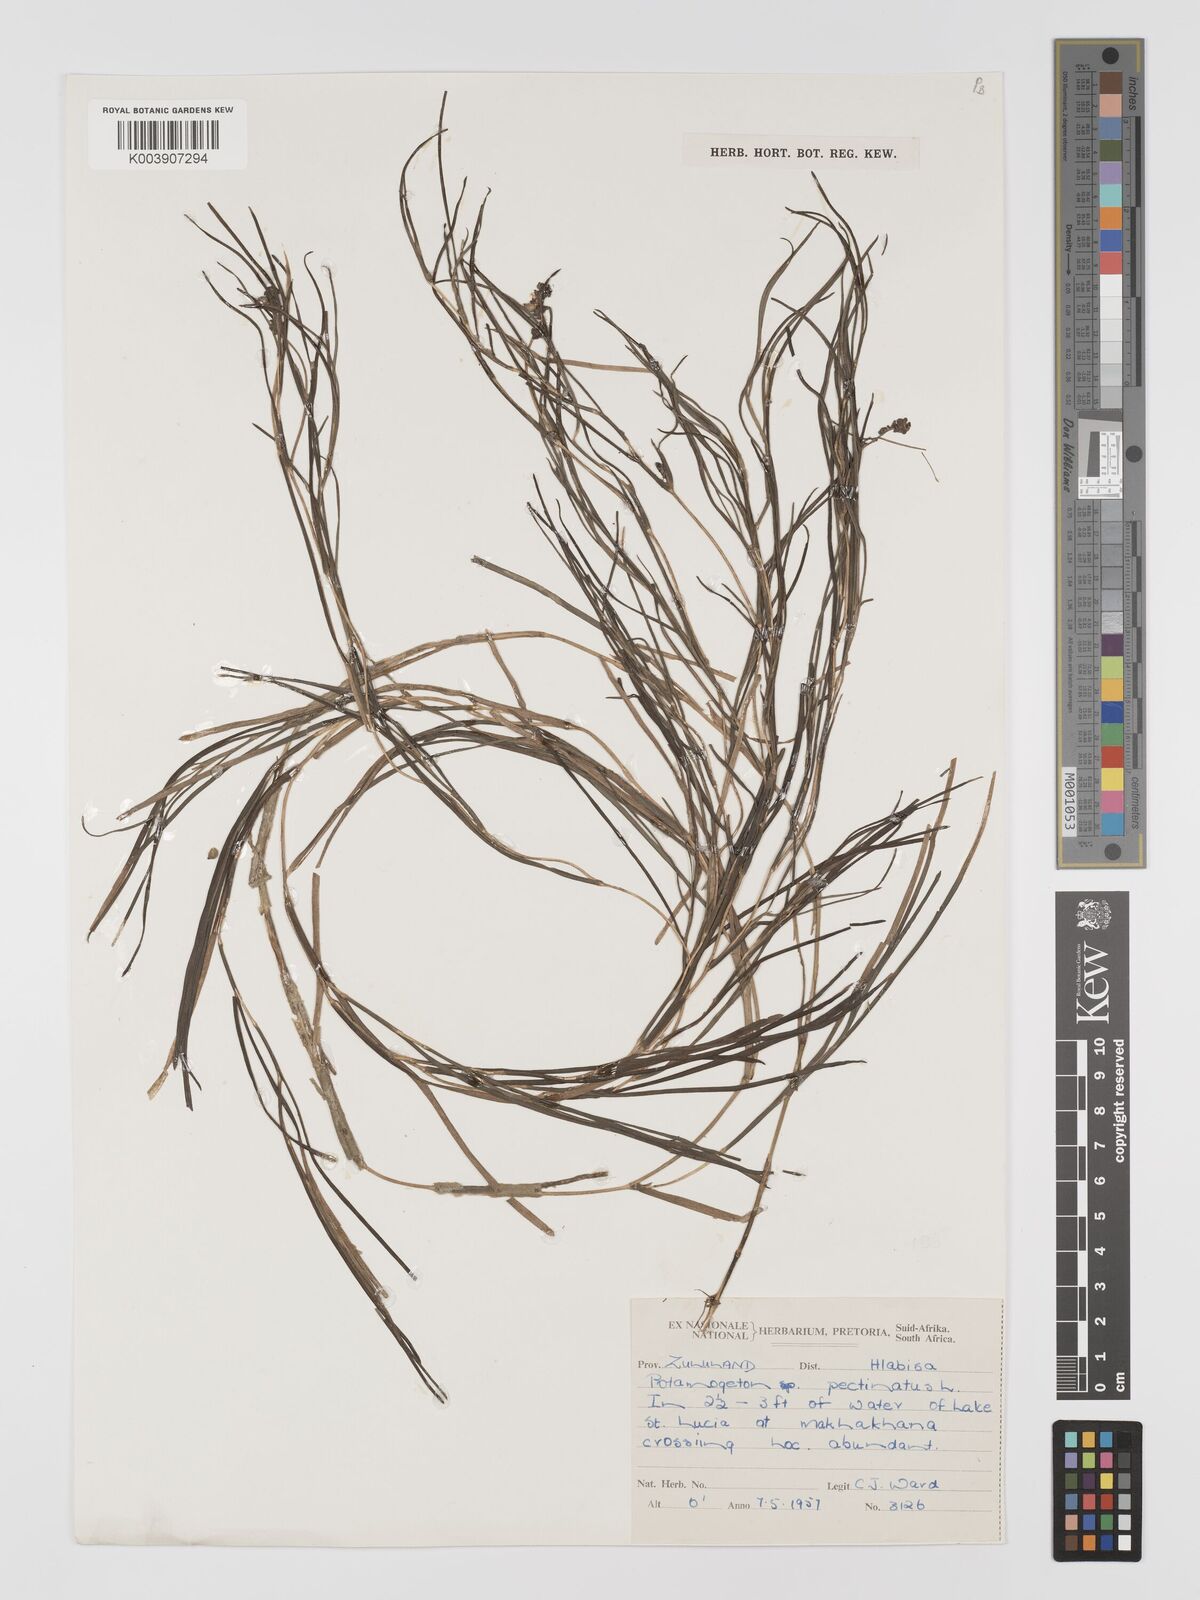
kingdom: Plantae
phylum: Tracheophyta
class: Liliopsida
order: Alismatales
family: Potamogetonaceae
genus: Stuckenia
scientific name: Stuckenia pectinata
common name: Sago pondweed
